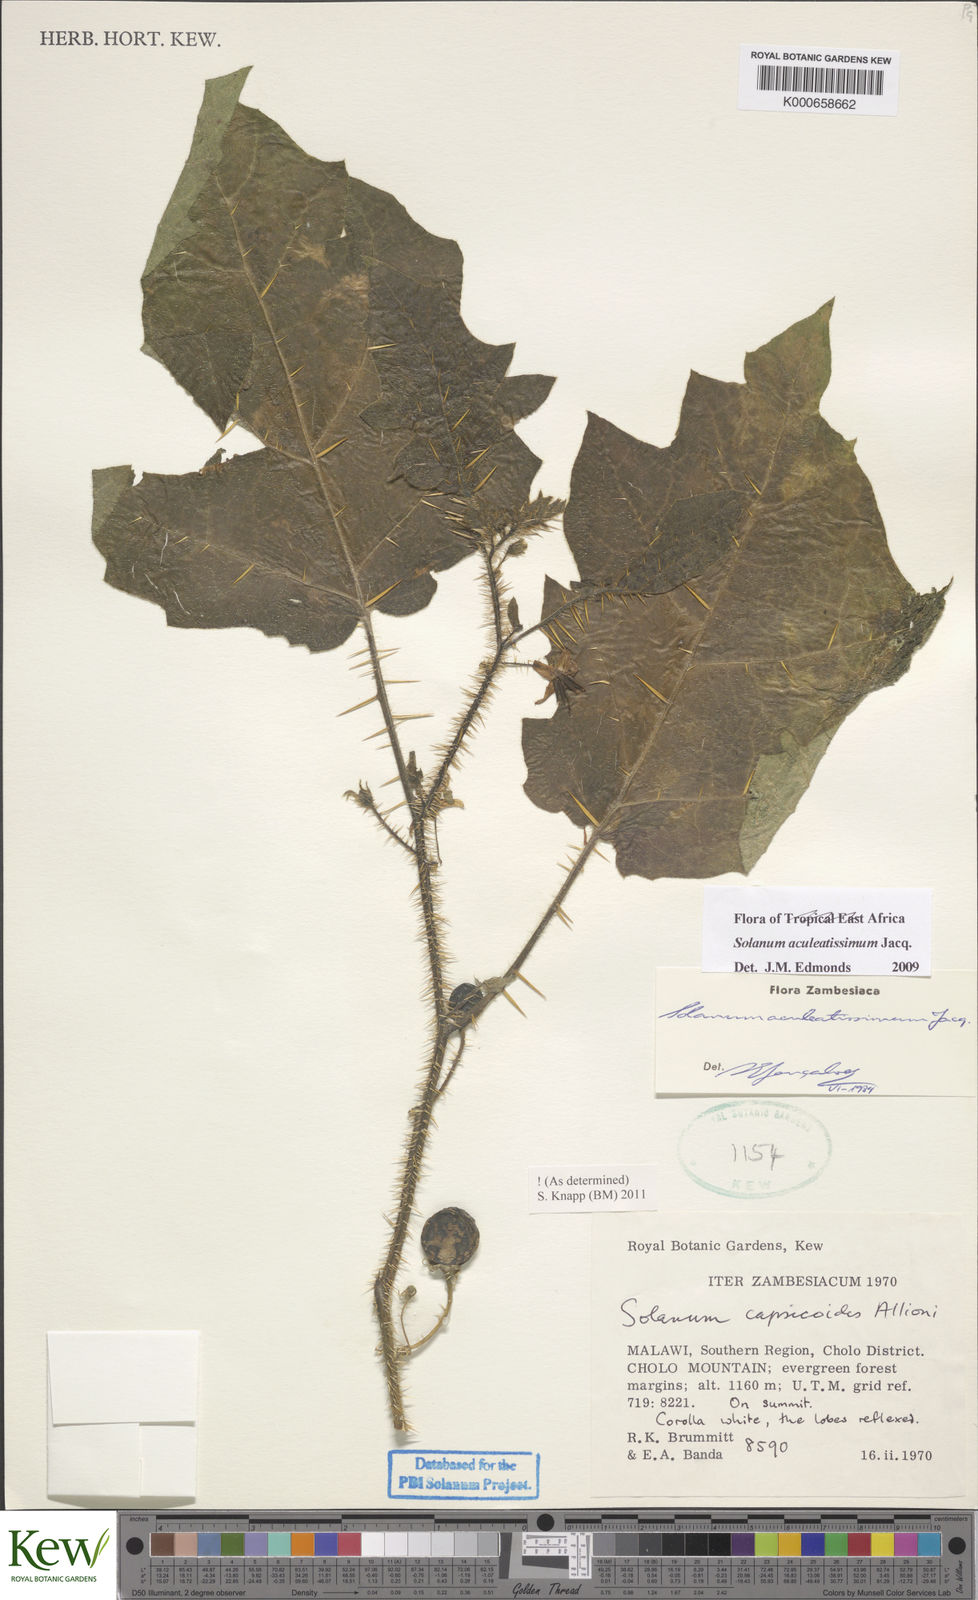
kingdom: Plantae
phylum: Tracheophyta
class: Magnoliopsida
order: Solanales
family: Solanaceae
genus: Solanum
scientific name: Solanum aculeatissimum
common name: Dutch eggplant
